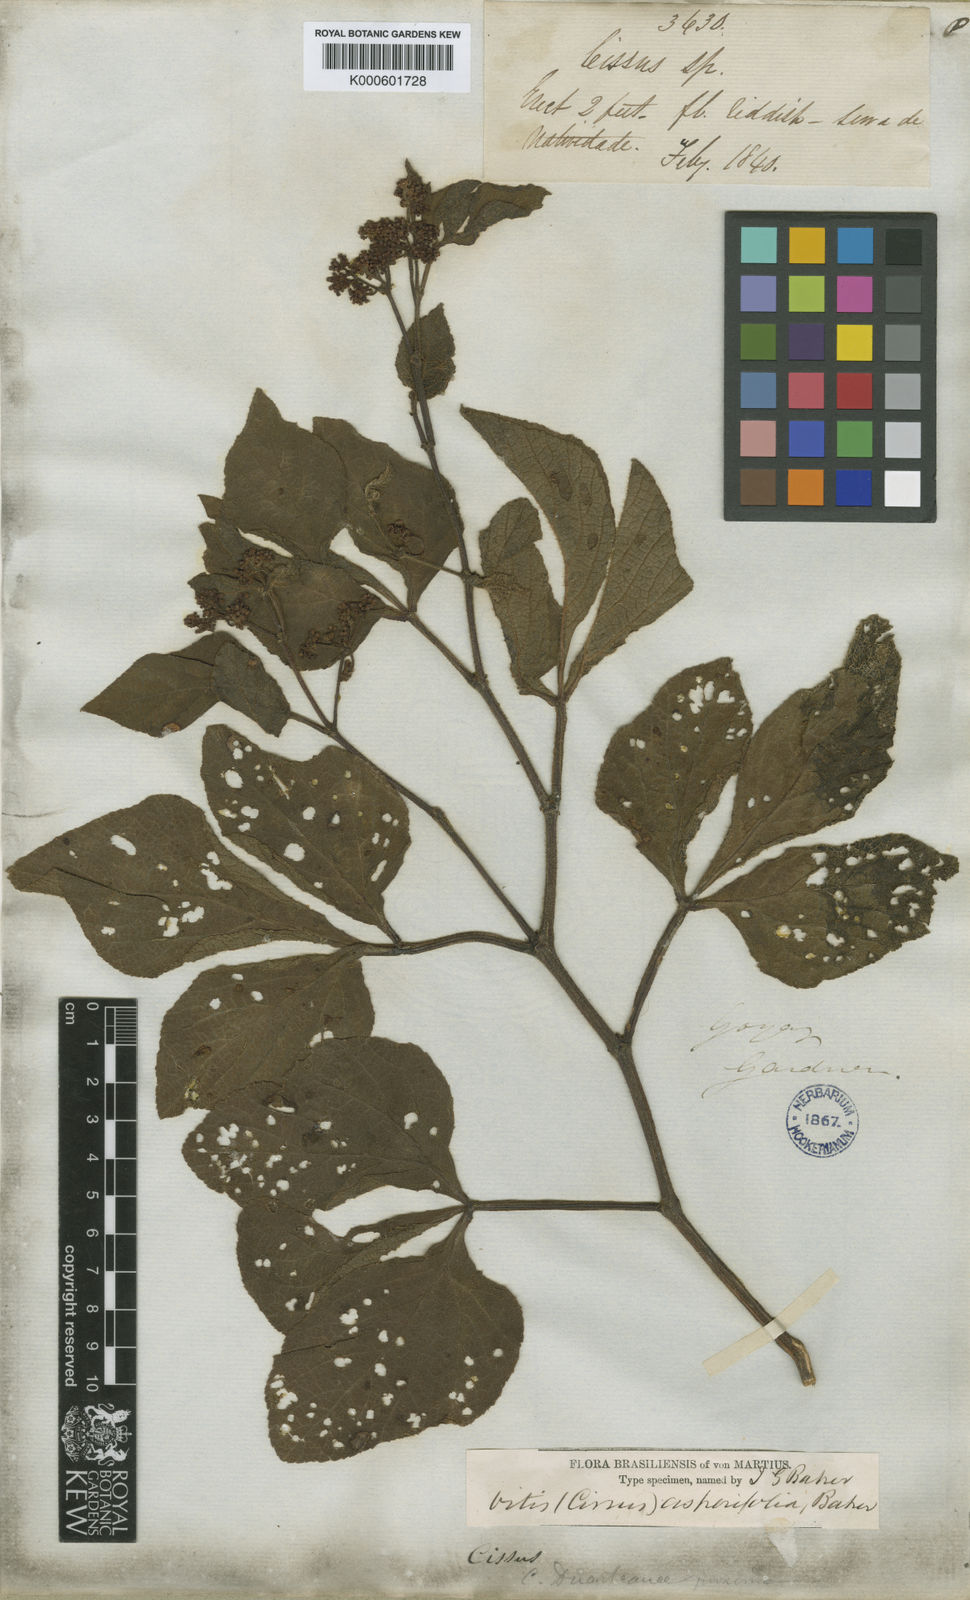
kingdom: Plantae
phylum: Tracheophyta
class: Magnoliopsida
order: Vitales
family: Vitaceae
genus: Cissus
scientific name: Cissus duarteana
